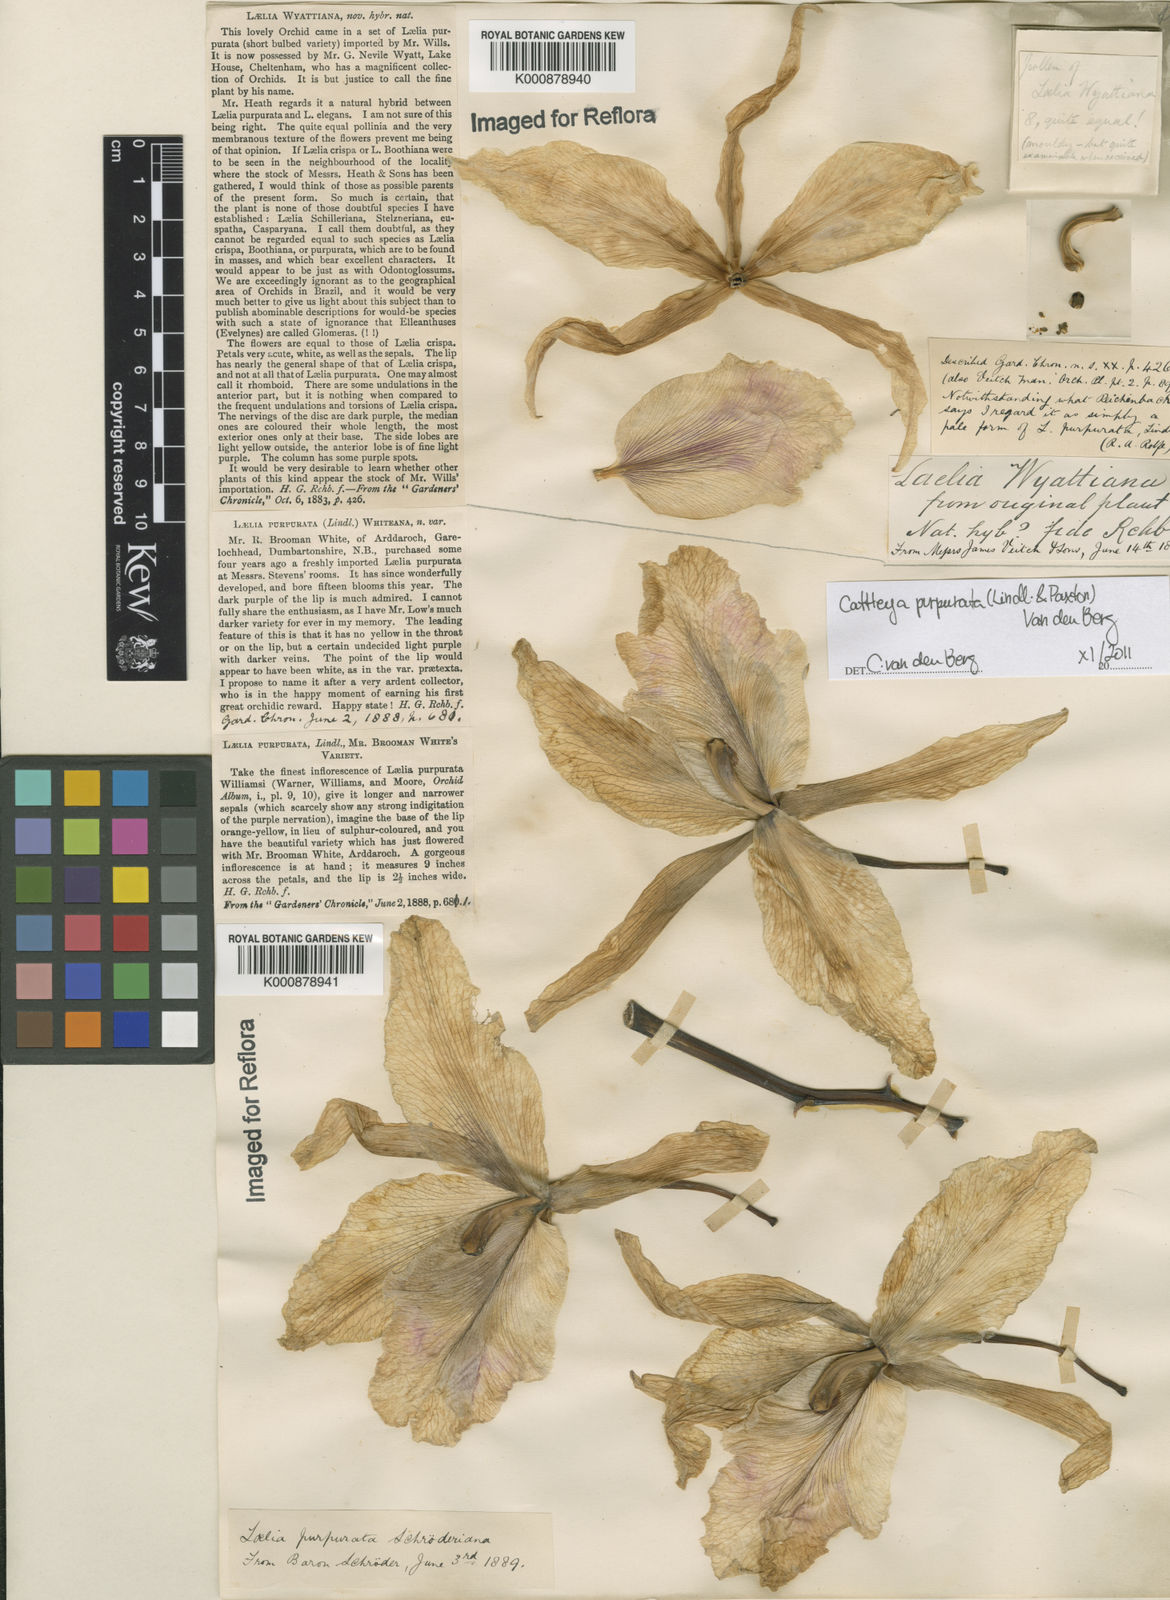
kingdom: Plantae
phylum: Tracheophyta
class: Liliopsida
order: Asparagales
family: Orchidaceae
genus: Cattleya
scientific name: Cattleya
